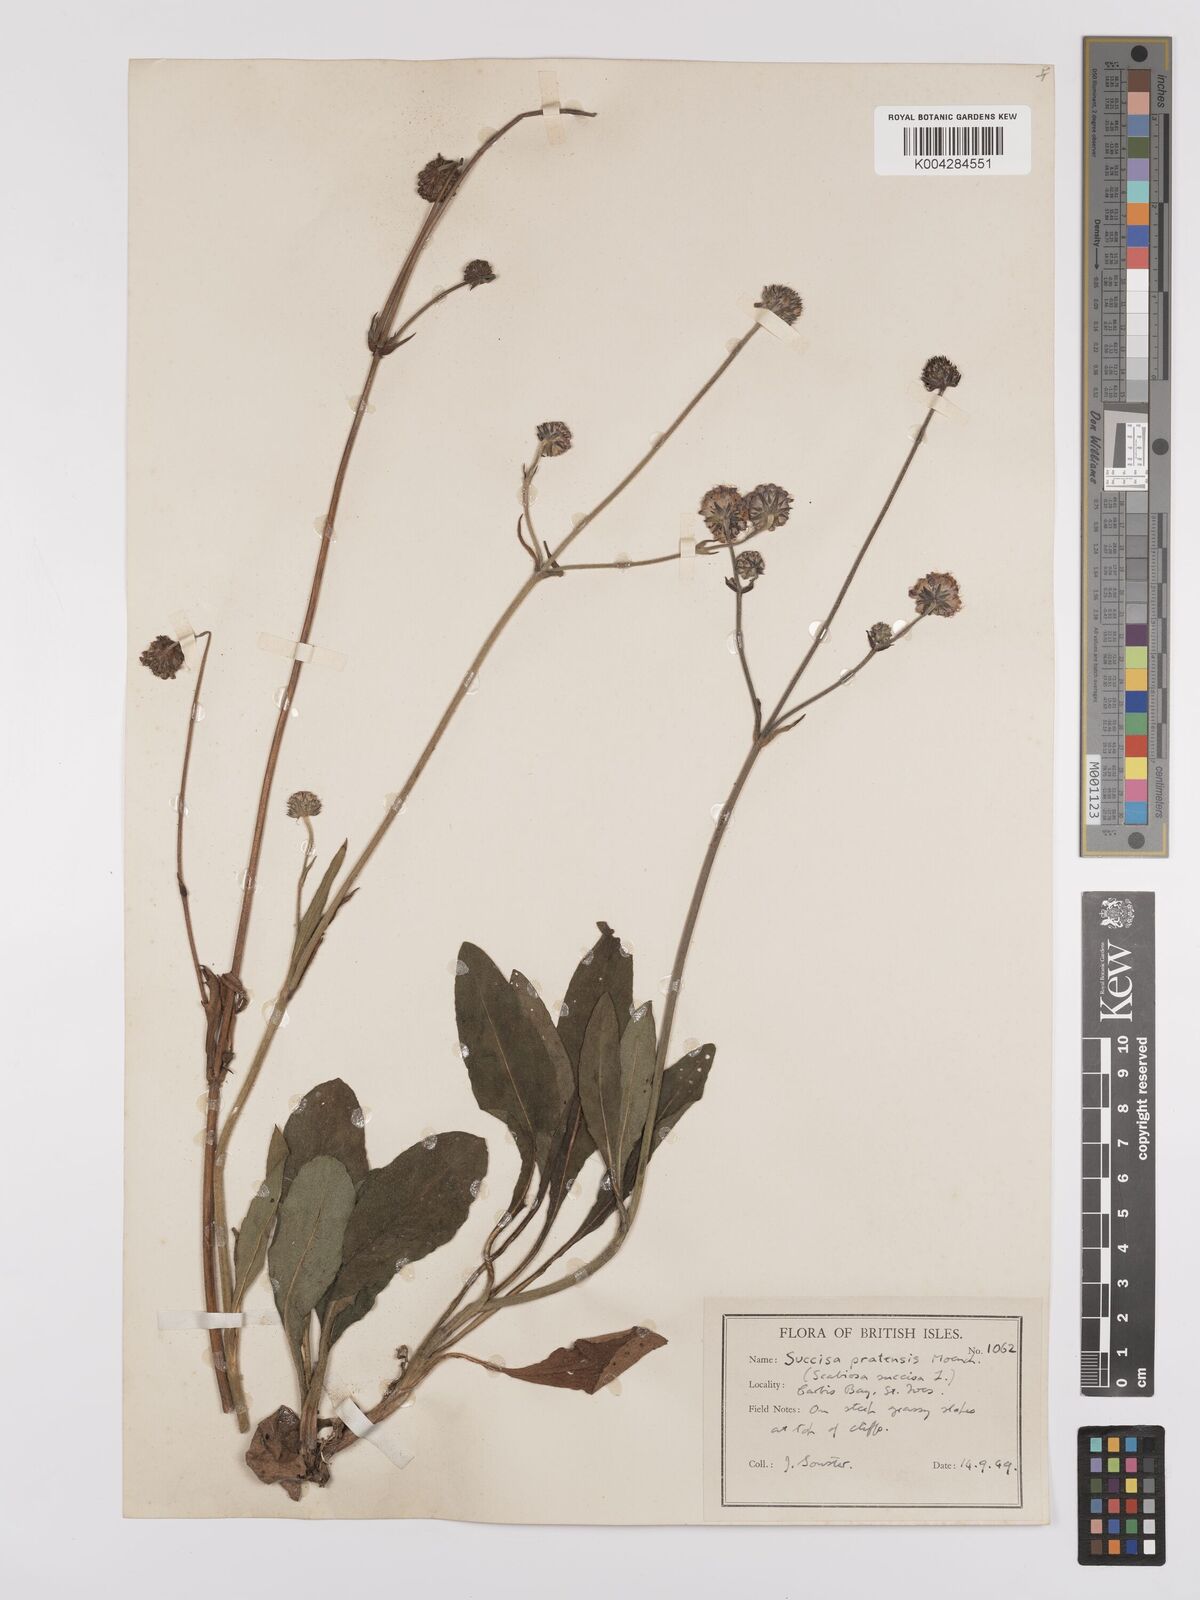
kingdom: Plantae
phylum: Tracheophyta
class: Magnoliopsida
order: Dipsacales
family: Caprifoliaceae
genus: Succisa
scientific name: Succisa pratensis
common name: Devil's-bit
